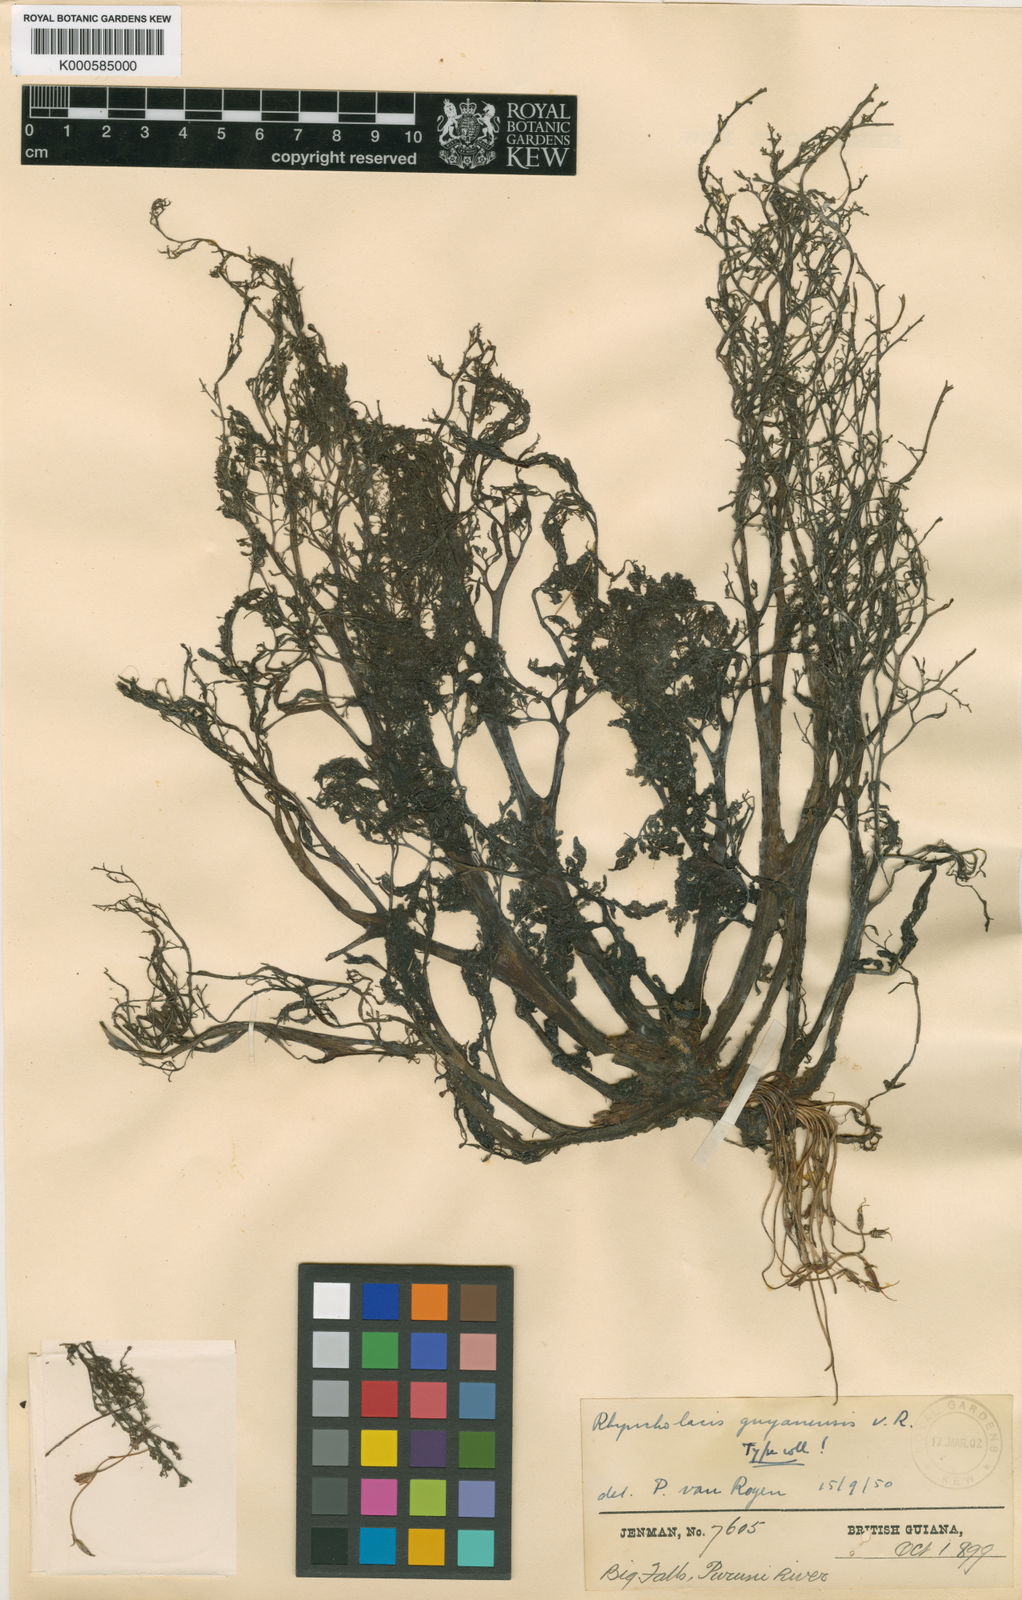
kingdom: Plantae
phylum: Tracheophyta
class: Magnoliopsida
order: Malpighiales
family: Podostemaceae
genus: Rhyncholacis
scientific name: Rhyncholacis guyanensis
